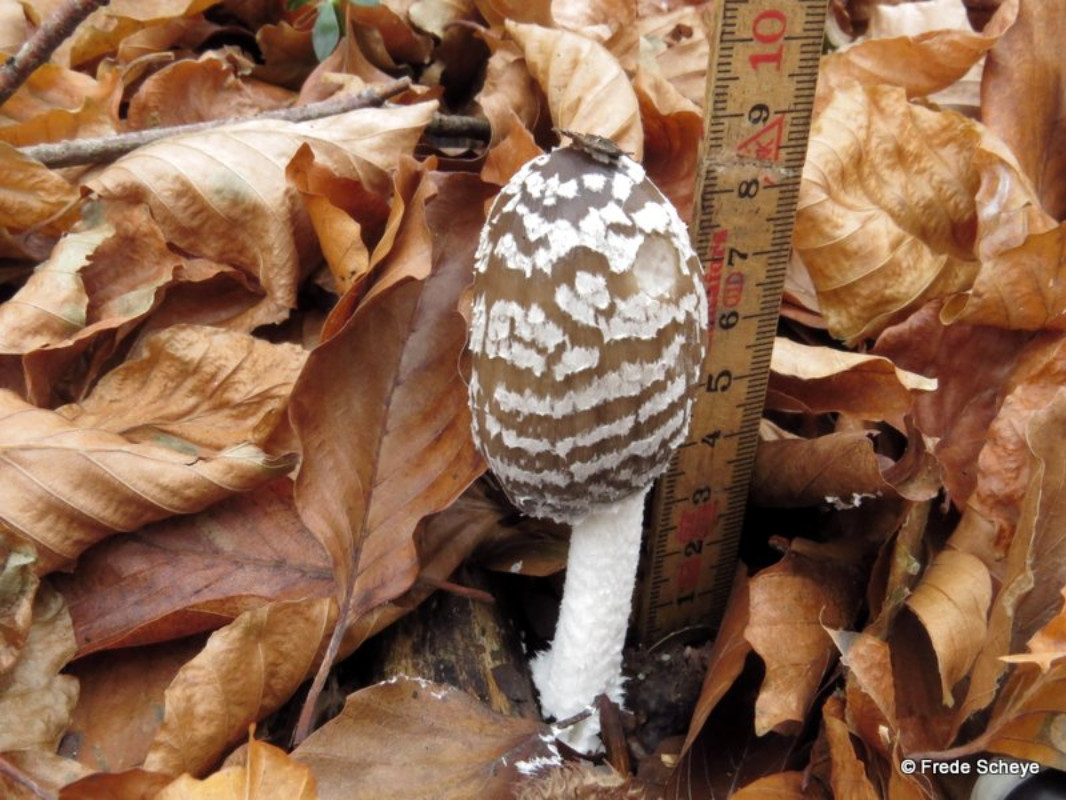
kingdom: Fungi
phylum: Basidiomycota
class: Agaricomycetes
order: Agaricales
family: Psathyrellaceae
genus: Coprinopsis
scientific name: Coprinopsis picacea
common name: skade-blækhat
